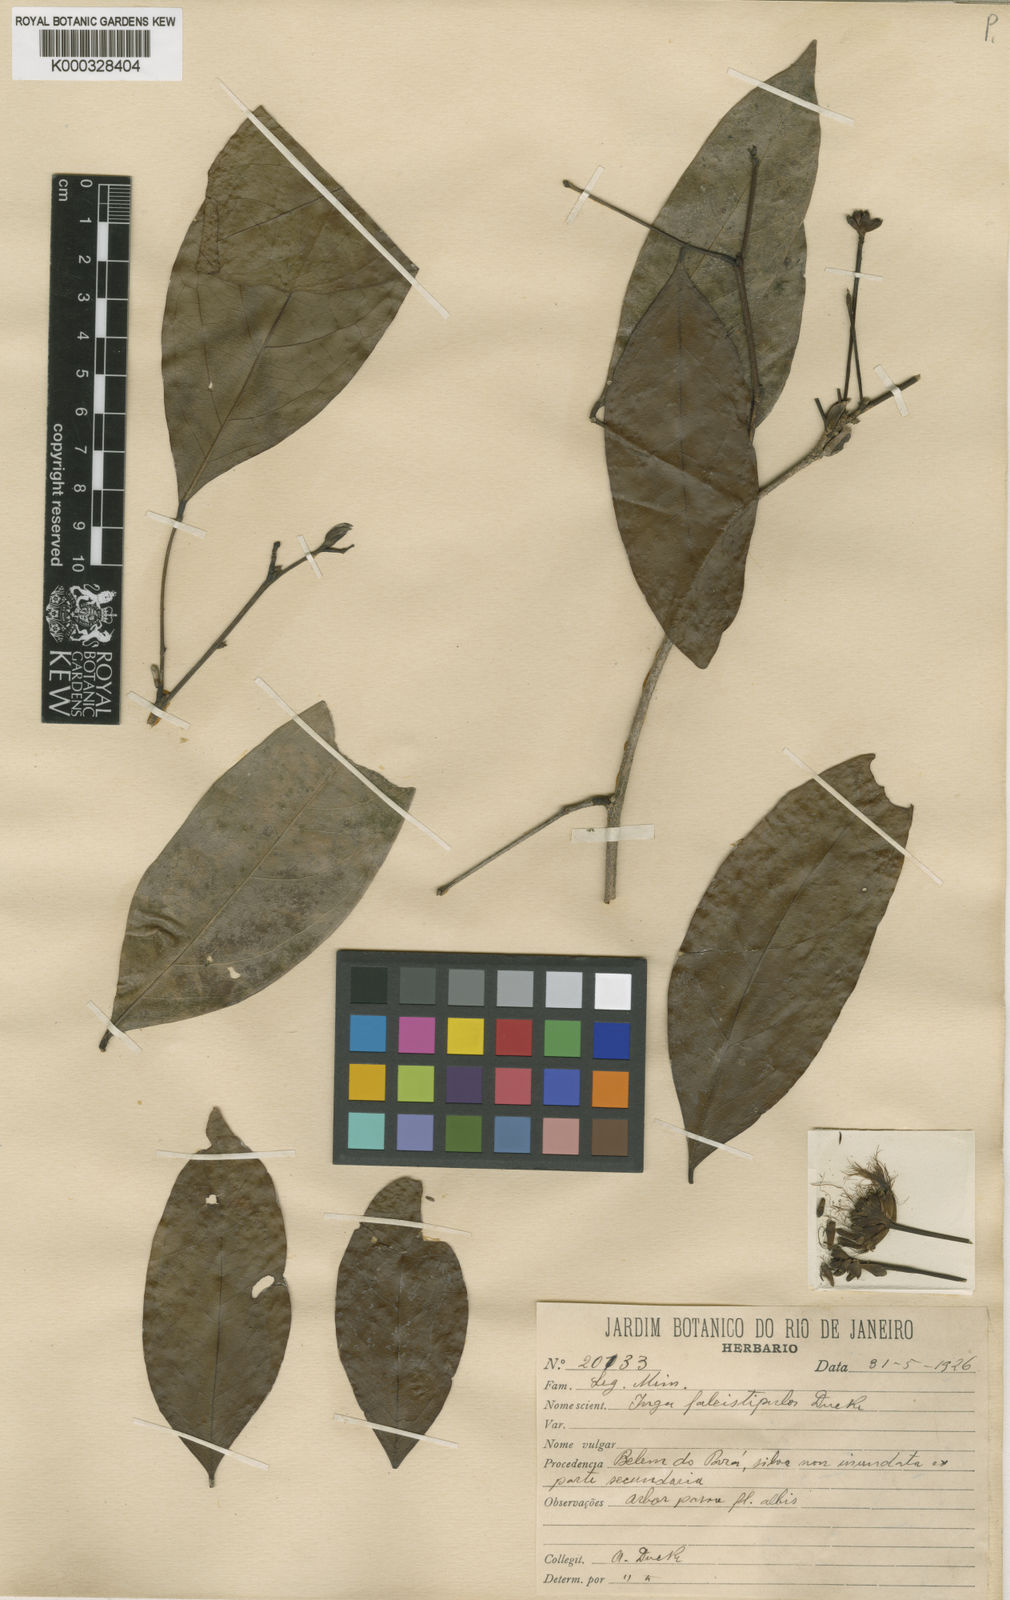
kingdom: Plantae
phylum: Tracheophyta
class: Magnoliopsida
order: Fabales
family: Fabaceae
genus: Inga
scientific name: Inga capitata
